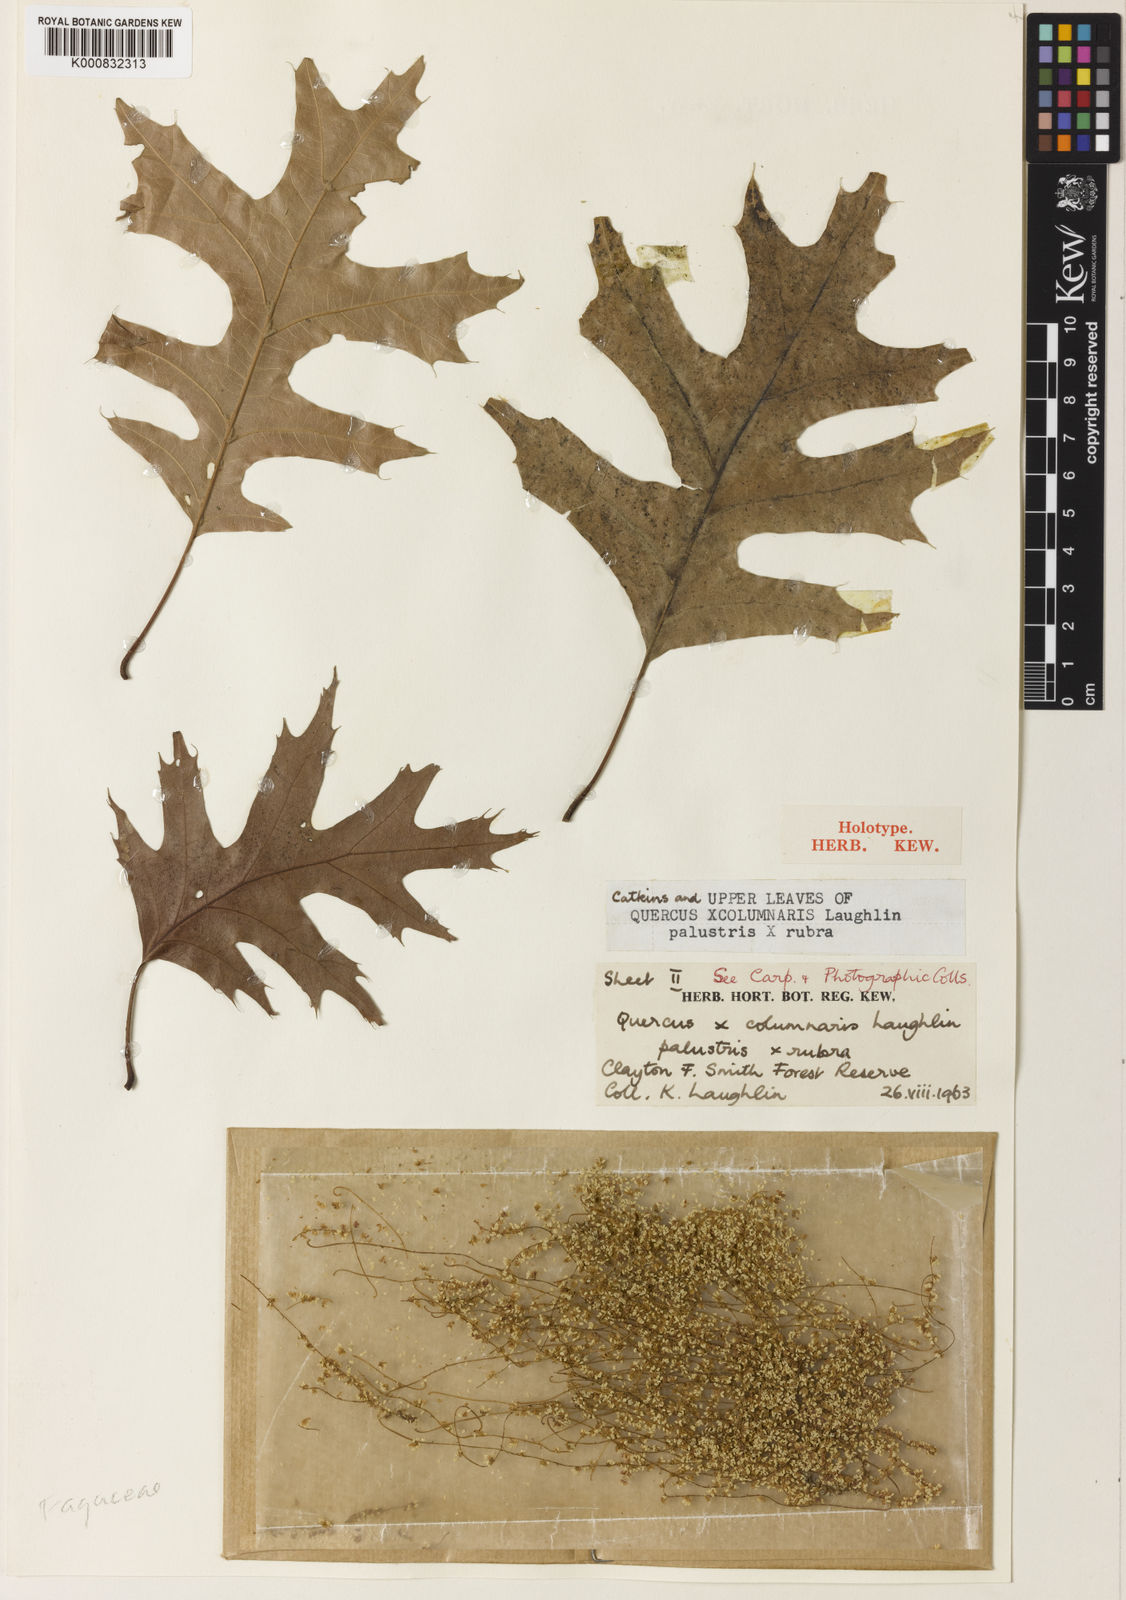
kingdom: Plantae
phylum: Tracheophyta
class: Magnoliopsida
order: Fagales
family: Fagaceae
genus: Quercus
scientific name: Quercus
